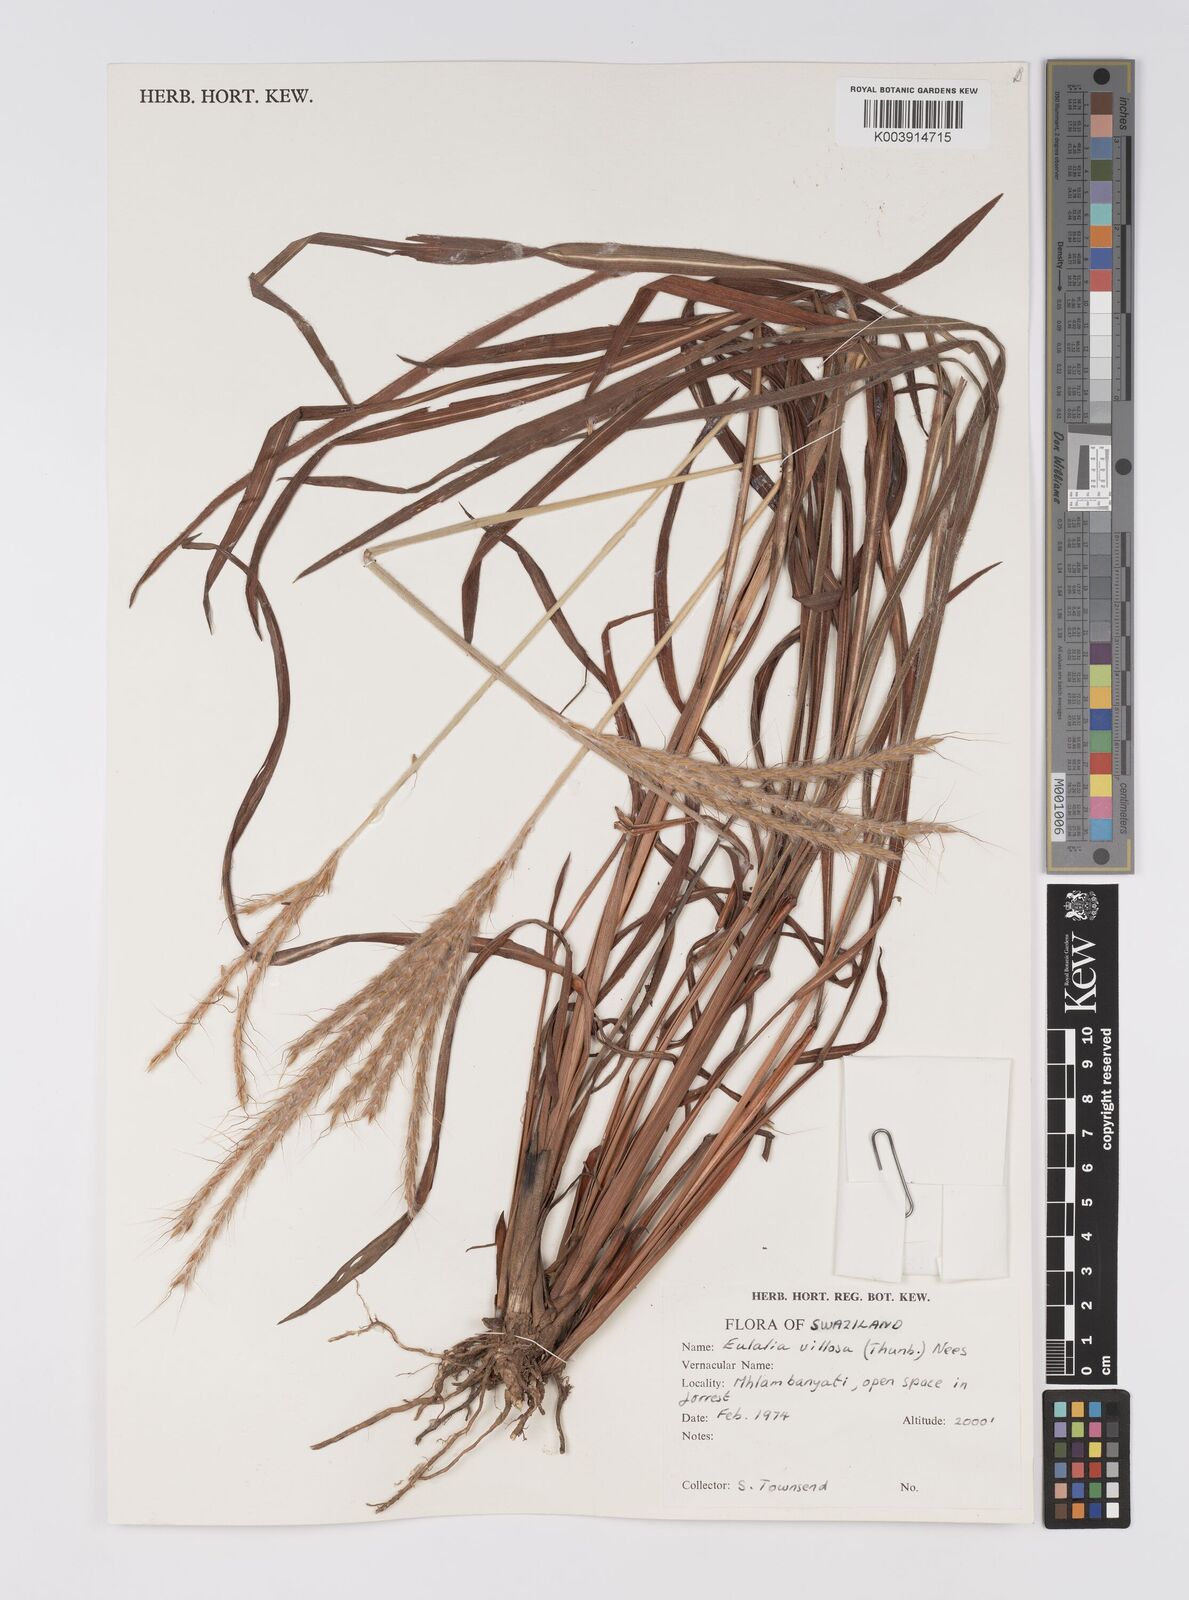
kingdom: Plantae
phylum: Tracheophyta
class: Liliopsida
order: Poales
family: Poaceae
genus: Eulalia
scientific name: Eulalia villosa
